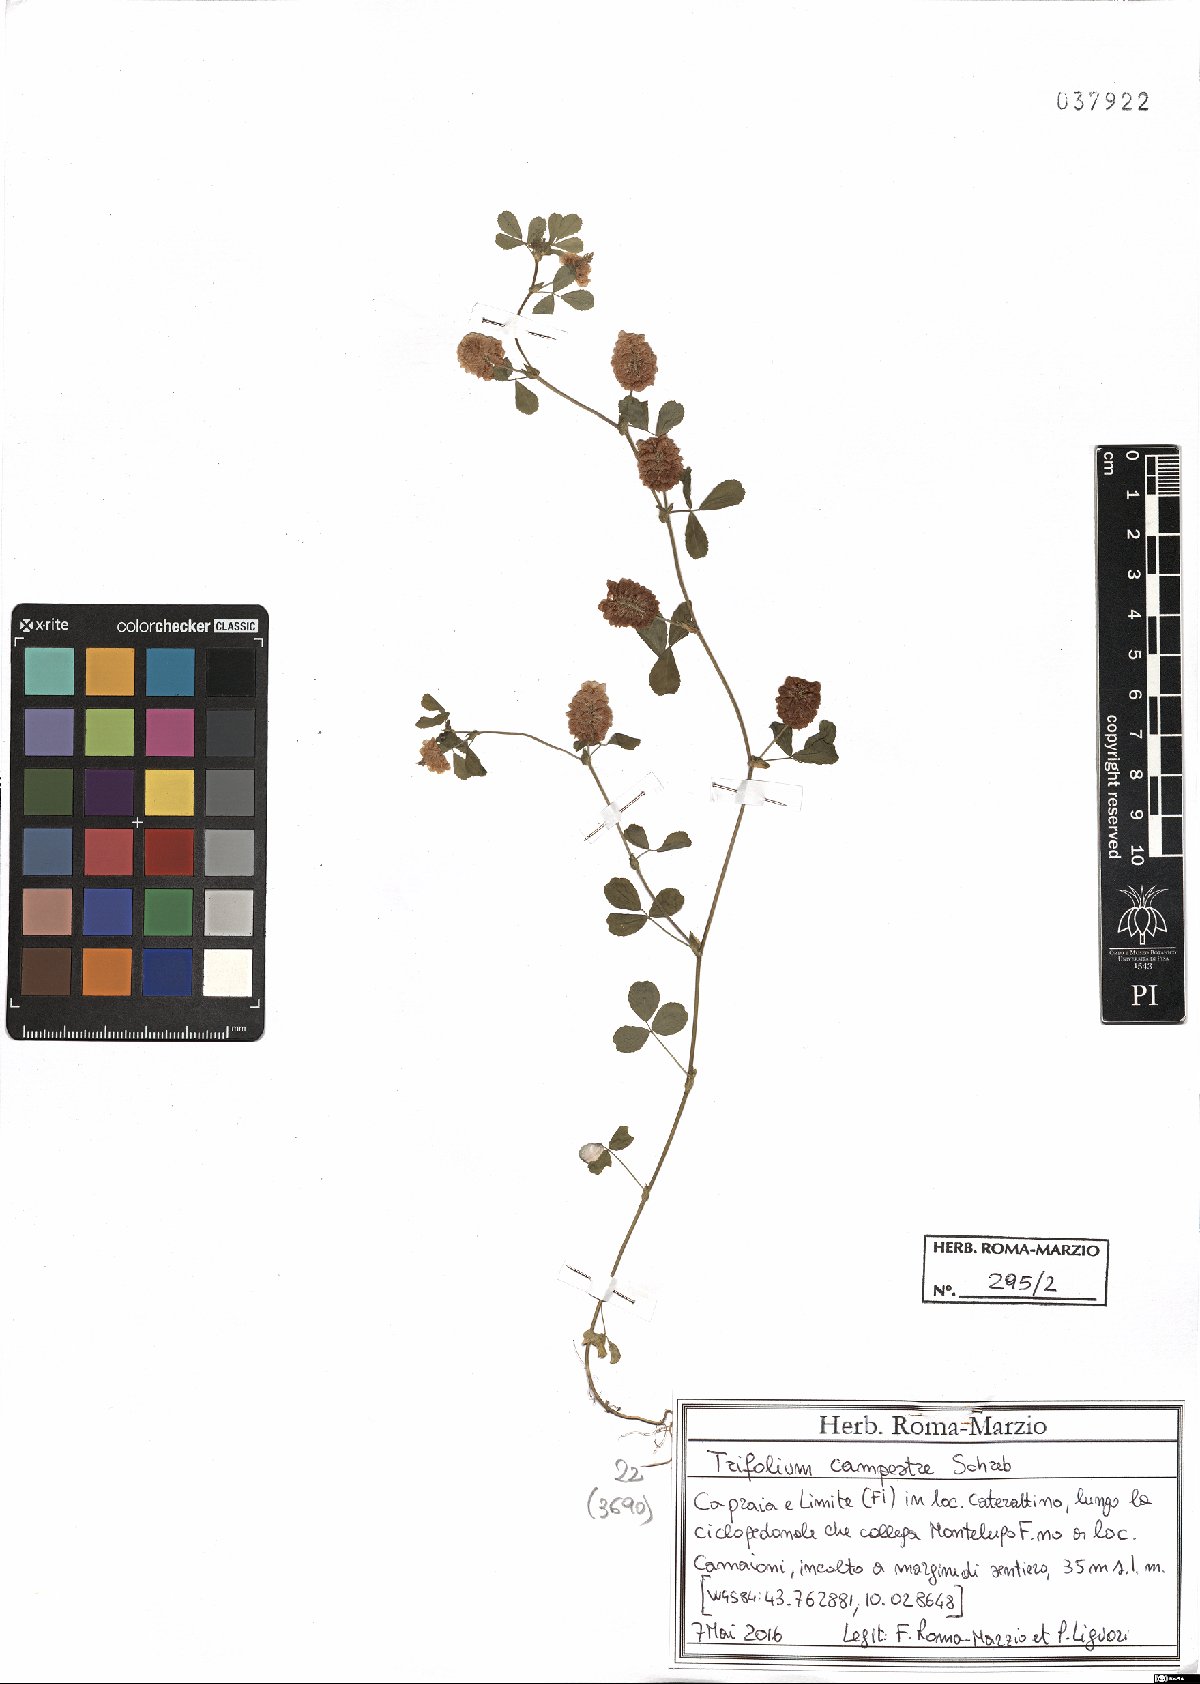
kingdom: Plantae
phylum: Tracheophyta
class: Magnoliopsida
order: Fabales
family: Fabaceae
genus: Trifolium
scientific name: Trifolium campestre
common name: Field clover
